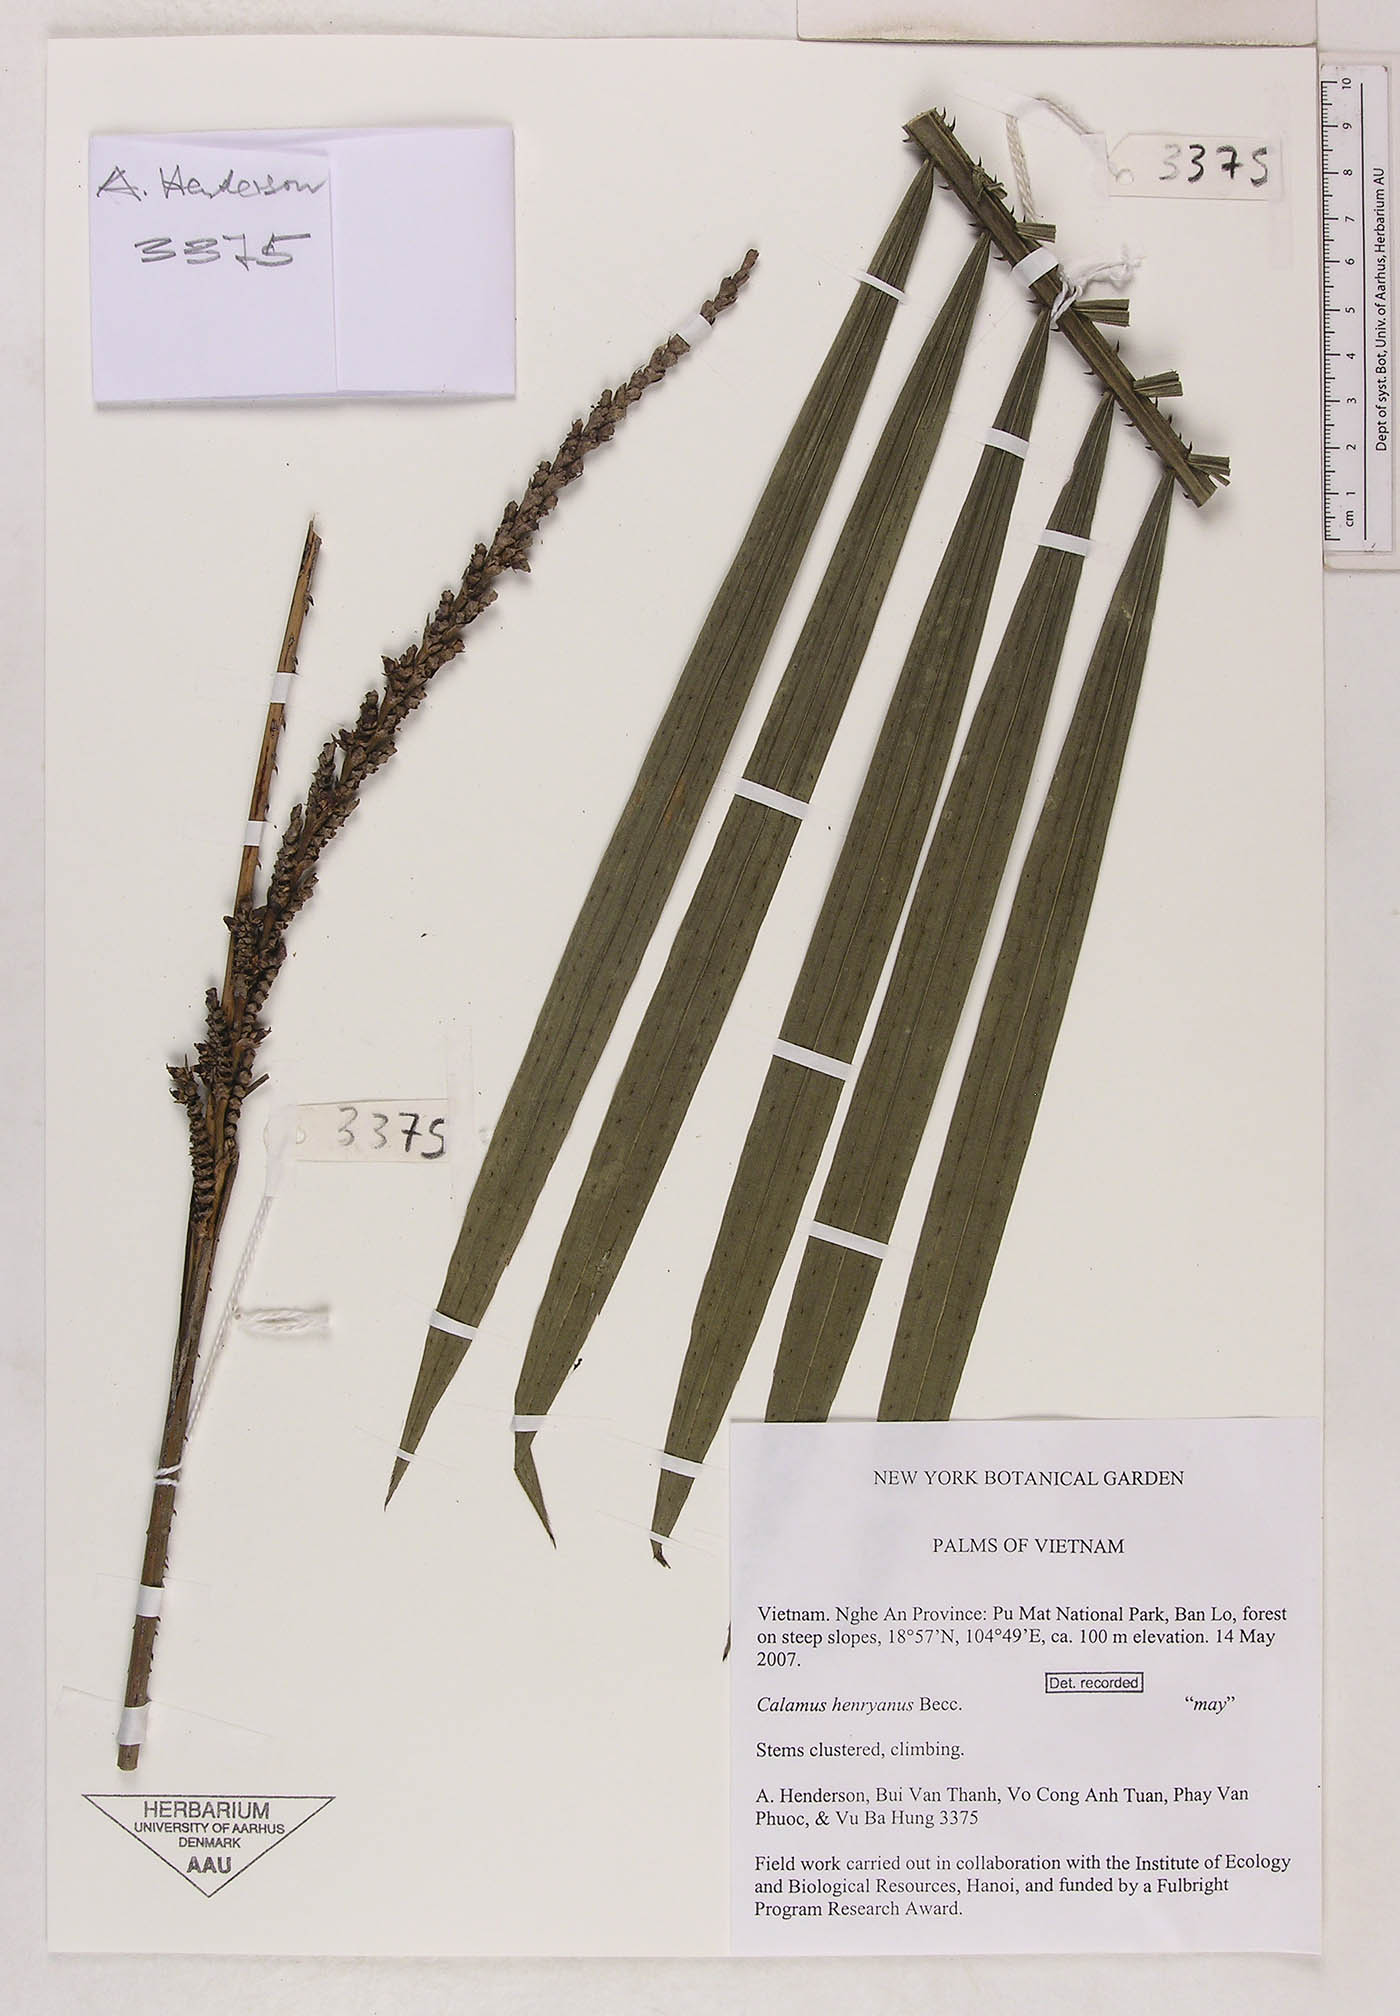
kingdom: Plantae
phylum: Tracheophyta
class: Liliopsida
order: Arecales
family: Arecaceae
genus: Calamus
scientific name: Calamus henryanus
